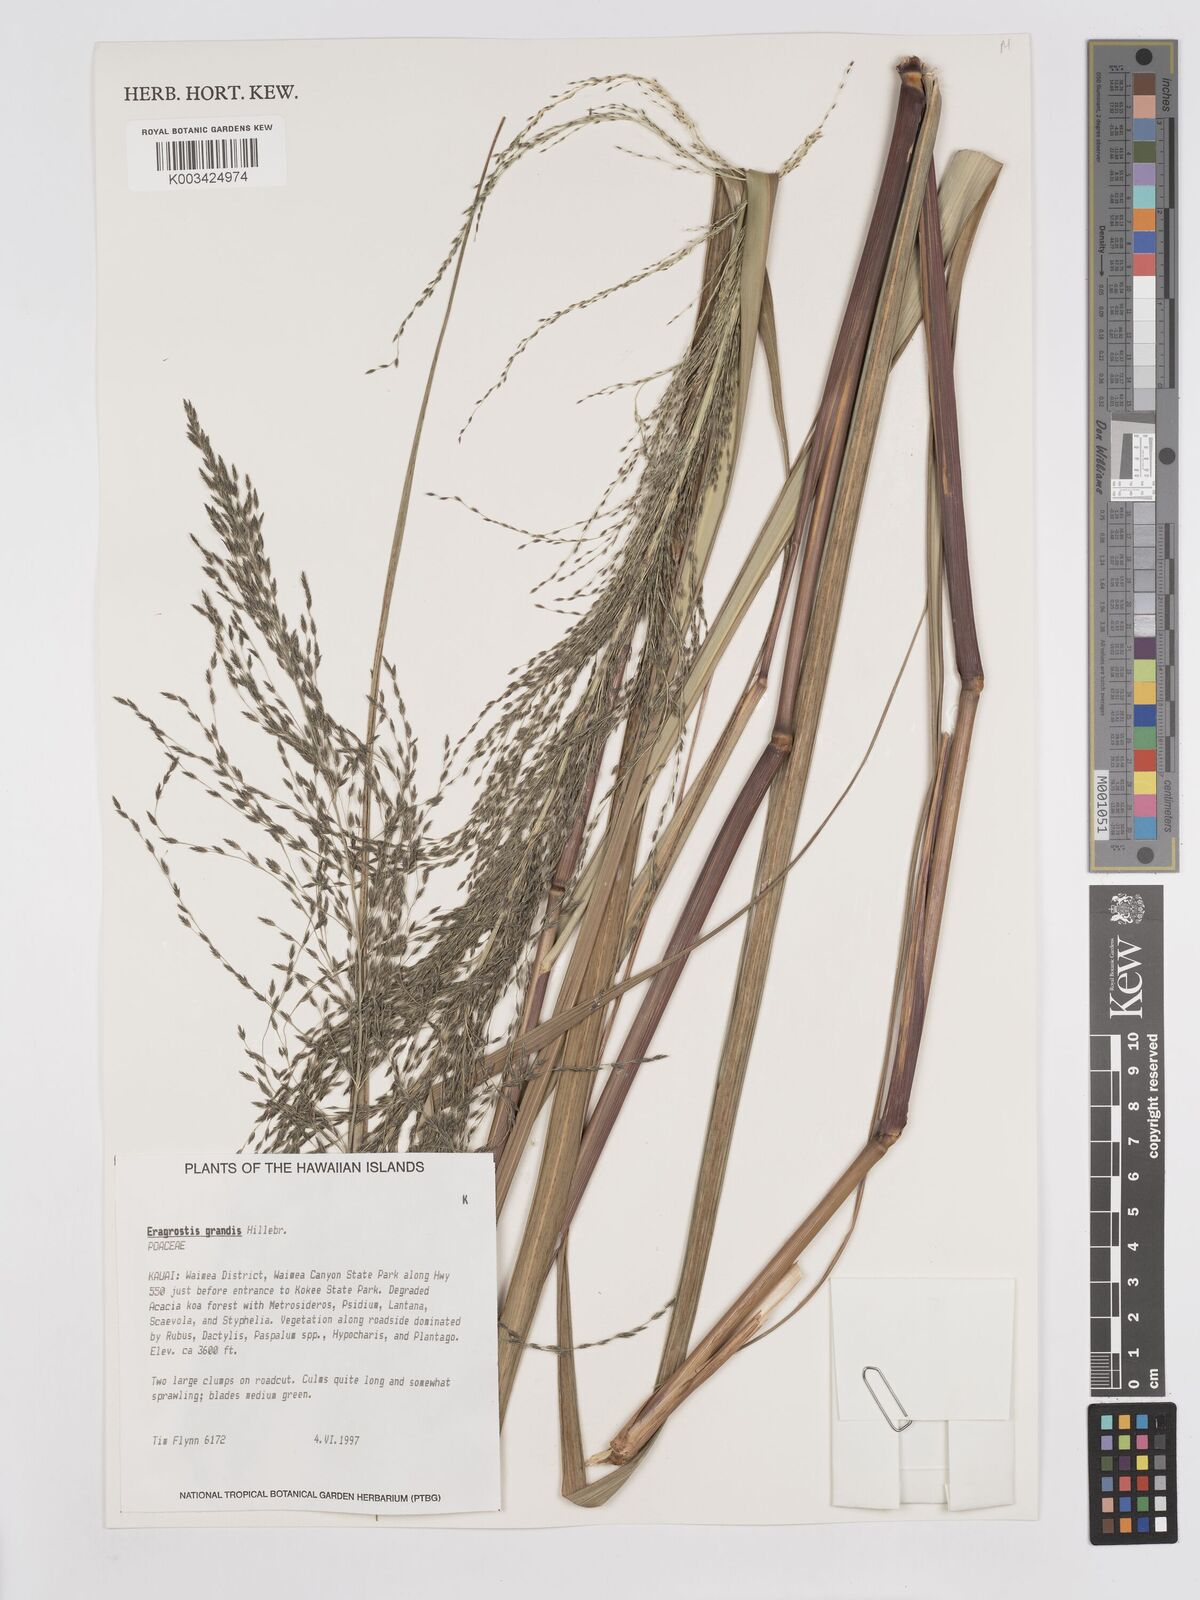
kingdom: Plantae
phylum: Tracheophyta
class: Liliopsida
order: Poales
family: Poaceae
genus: Eragrostis
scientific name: Eragrostis grandis
